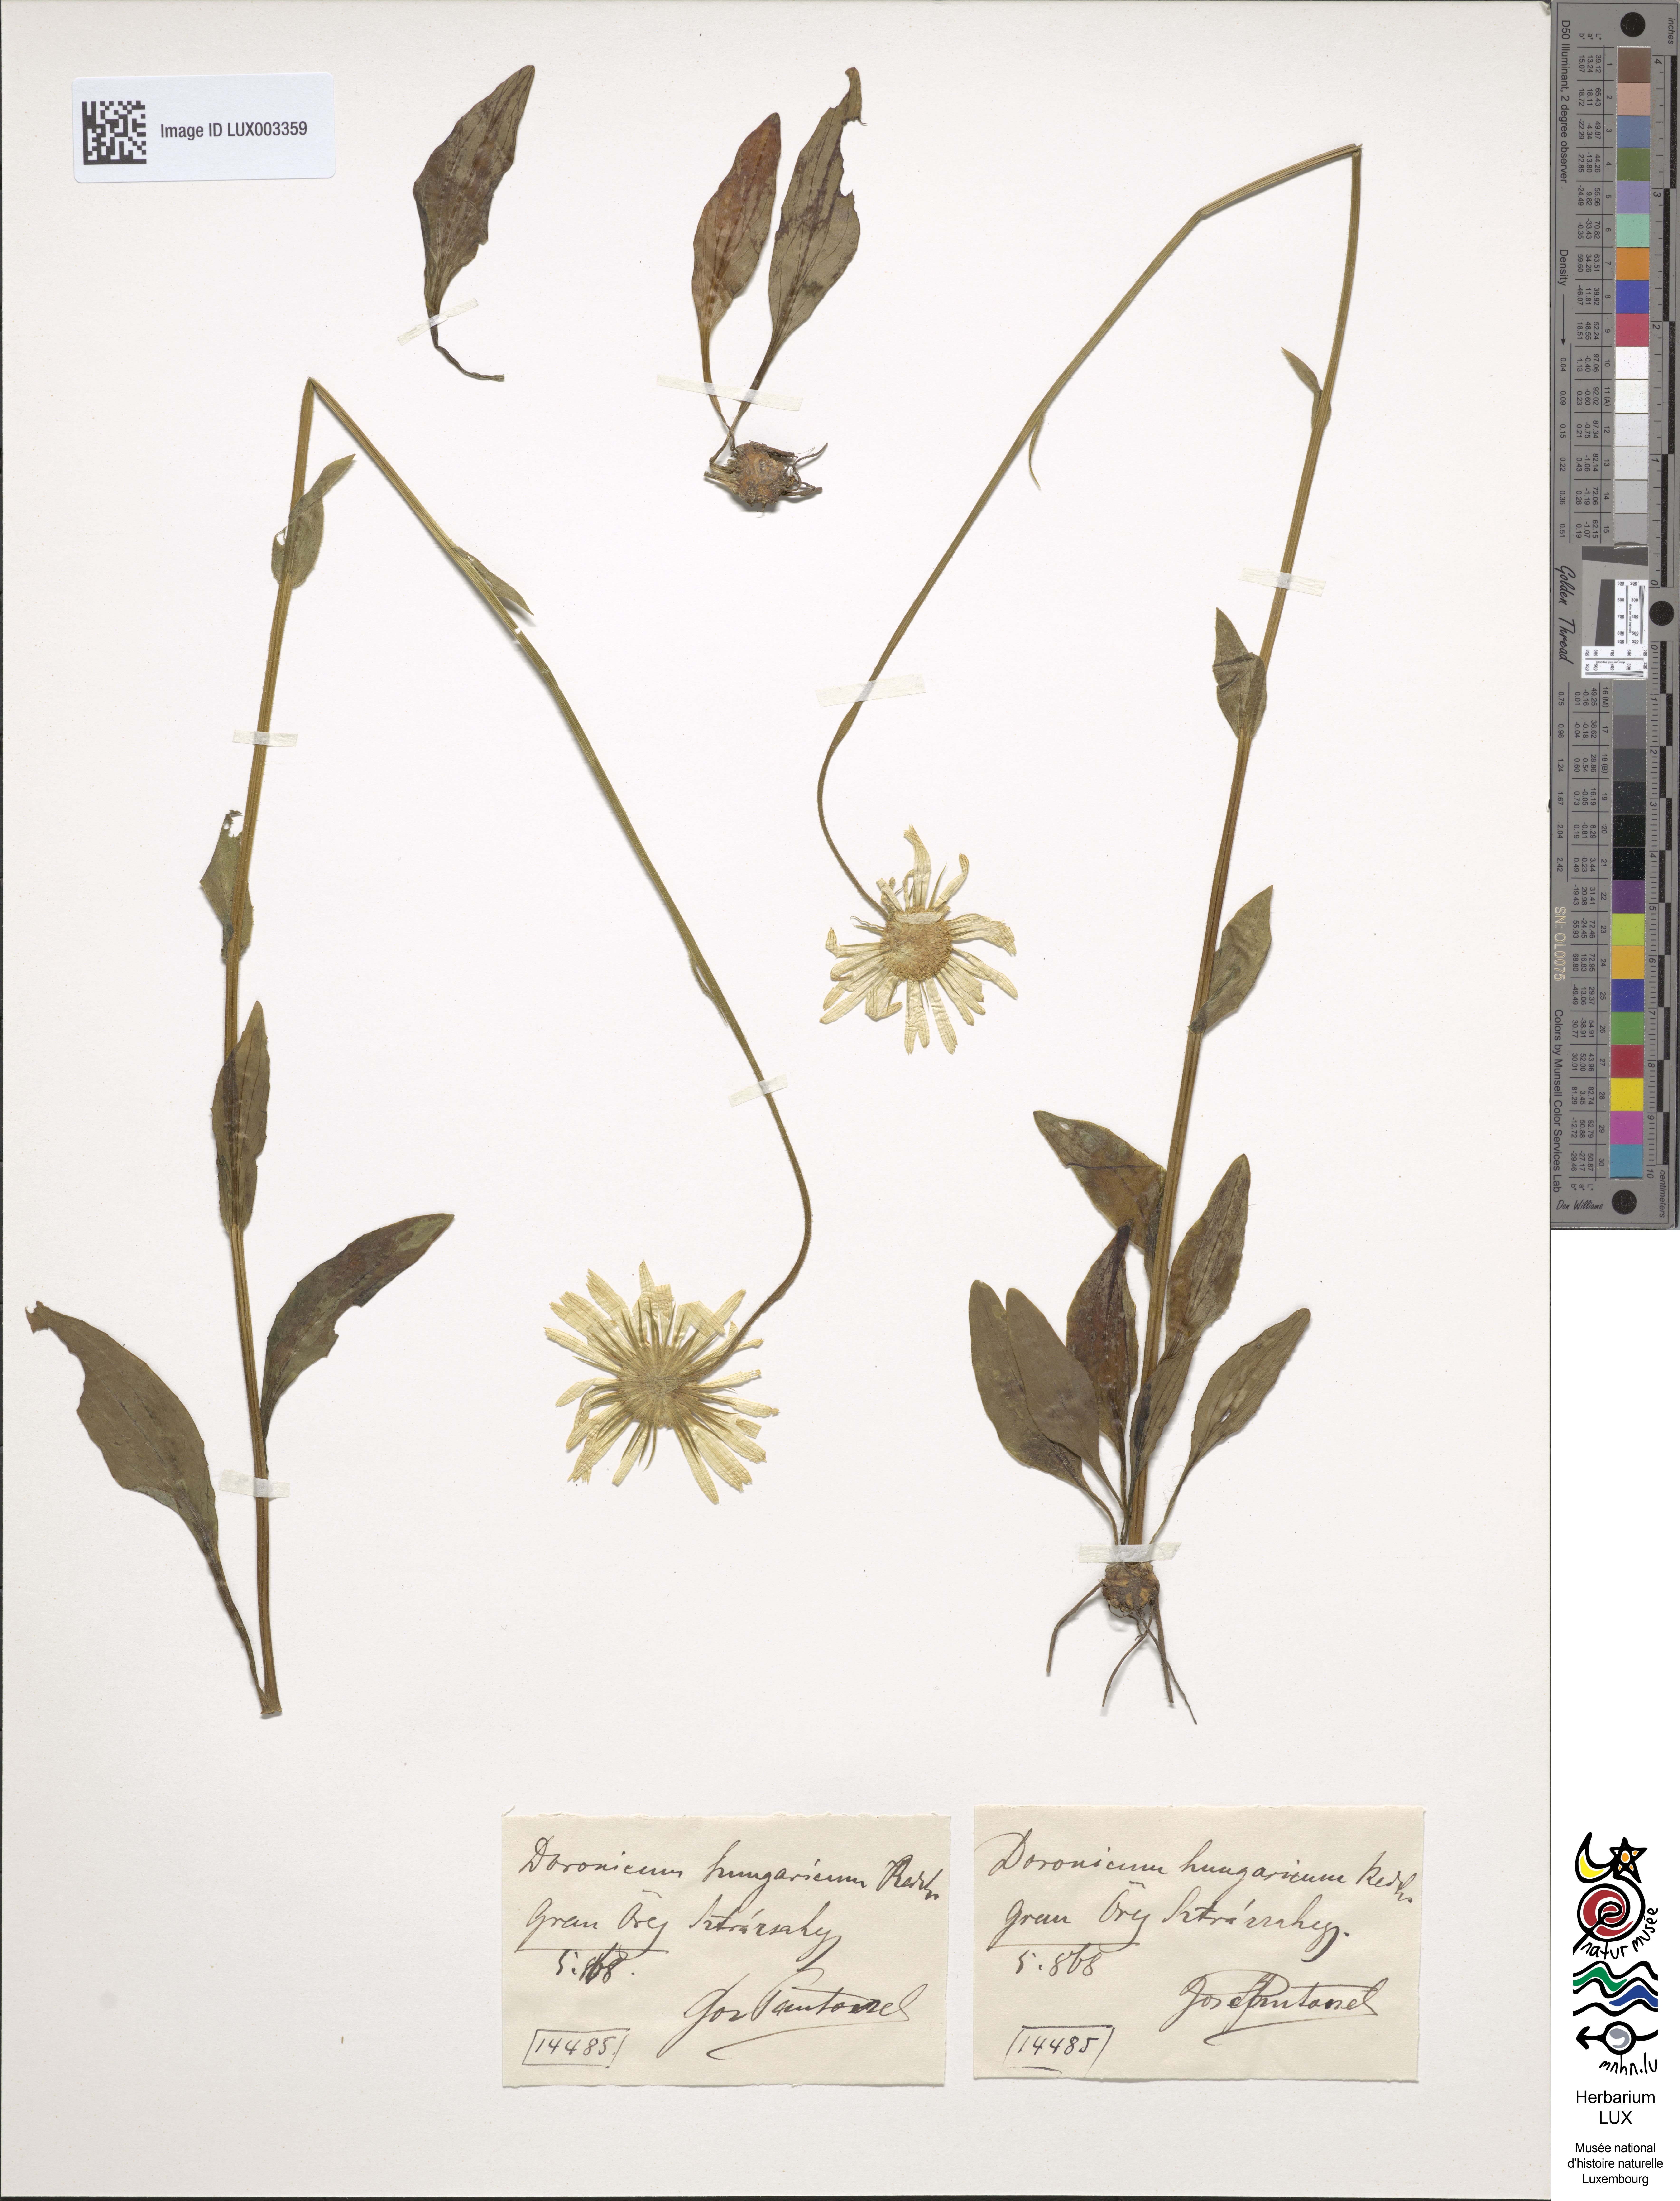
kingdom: Plantae
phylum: Tracheophyta
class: Magnoliopsida
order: Asterales
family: Asteraceae
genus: Doronicum
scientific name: Doronicum hungaricum
